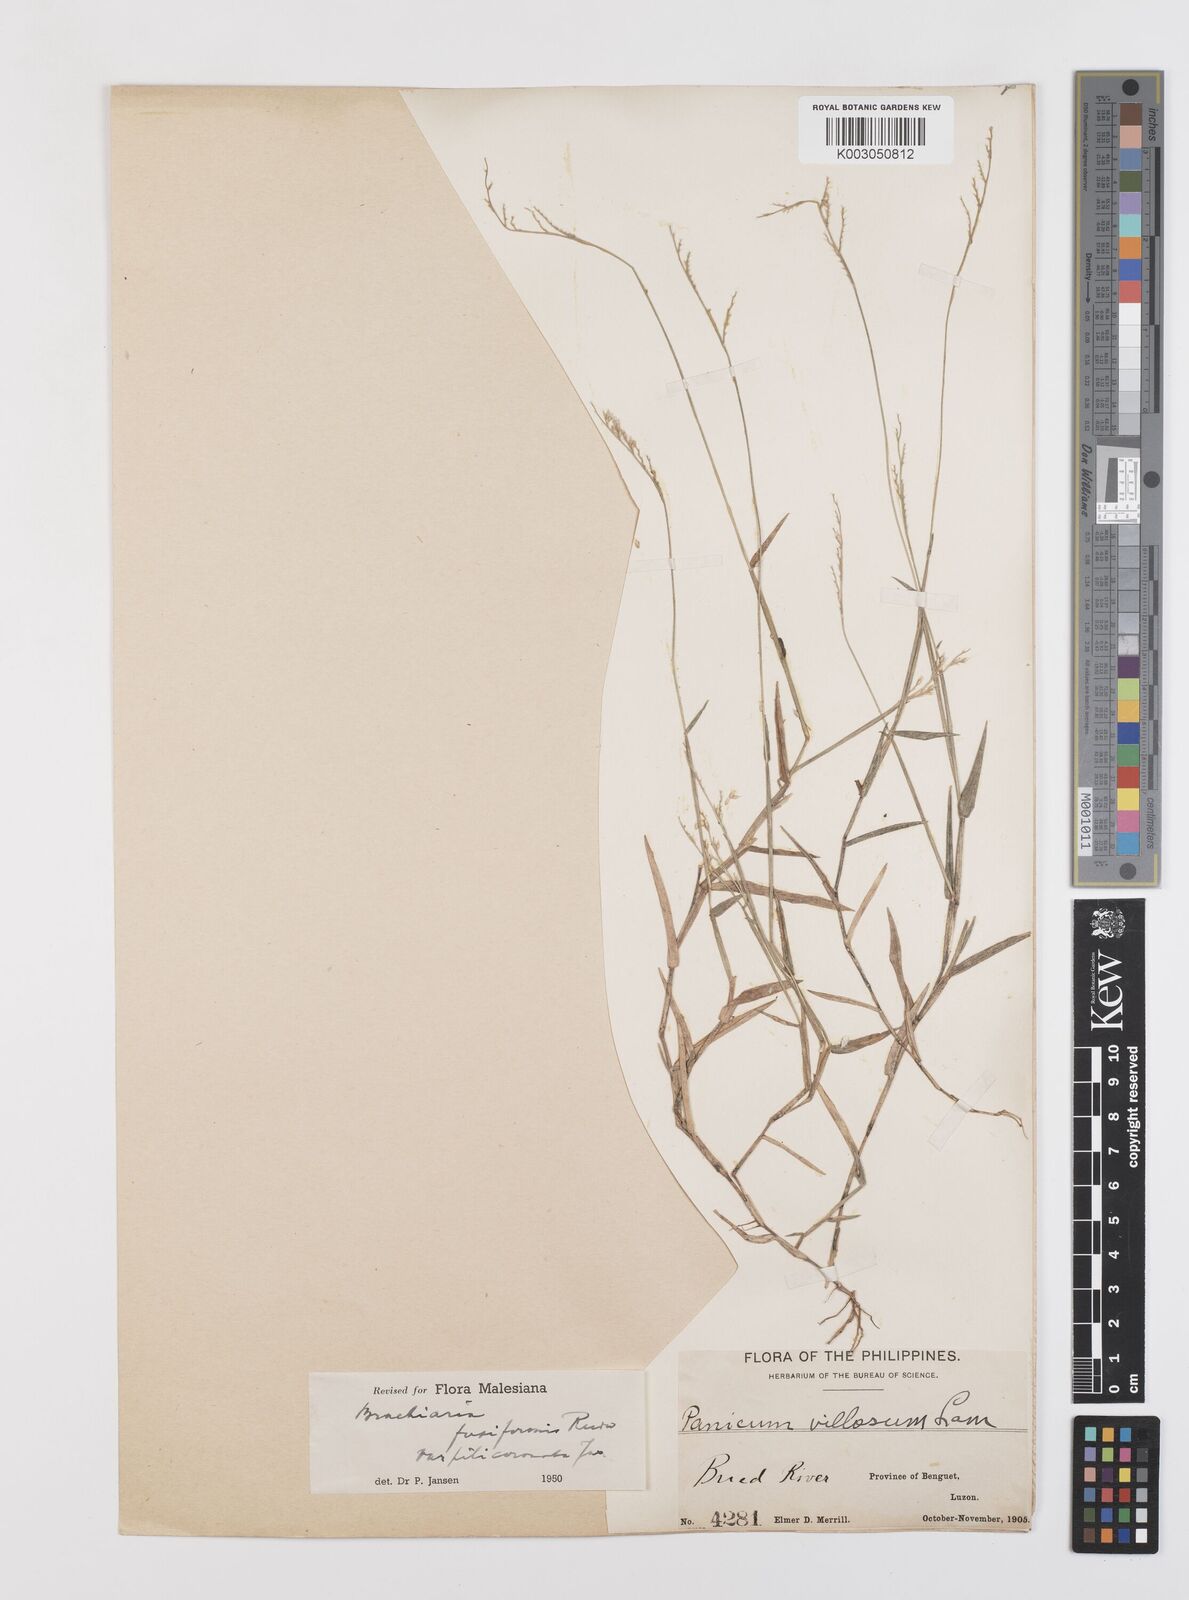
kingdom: Plantae
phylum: Tracheophyta
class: Liliopsida
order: Poales
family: Poaceae
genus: Urochloa
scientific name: Urochloa fusiformis
